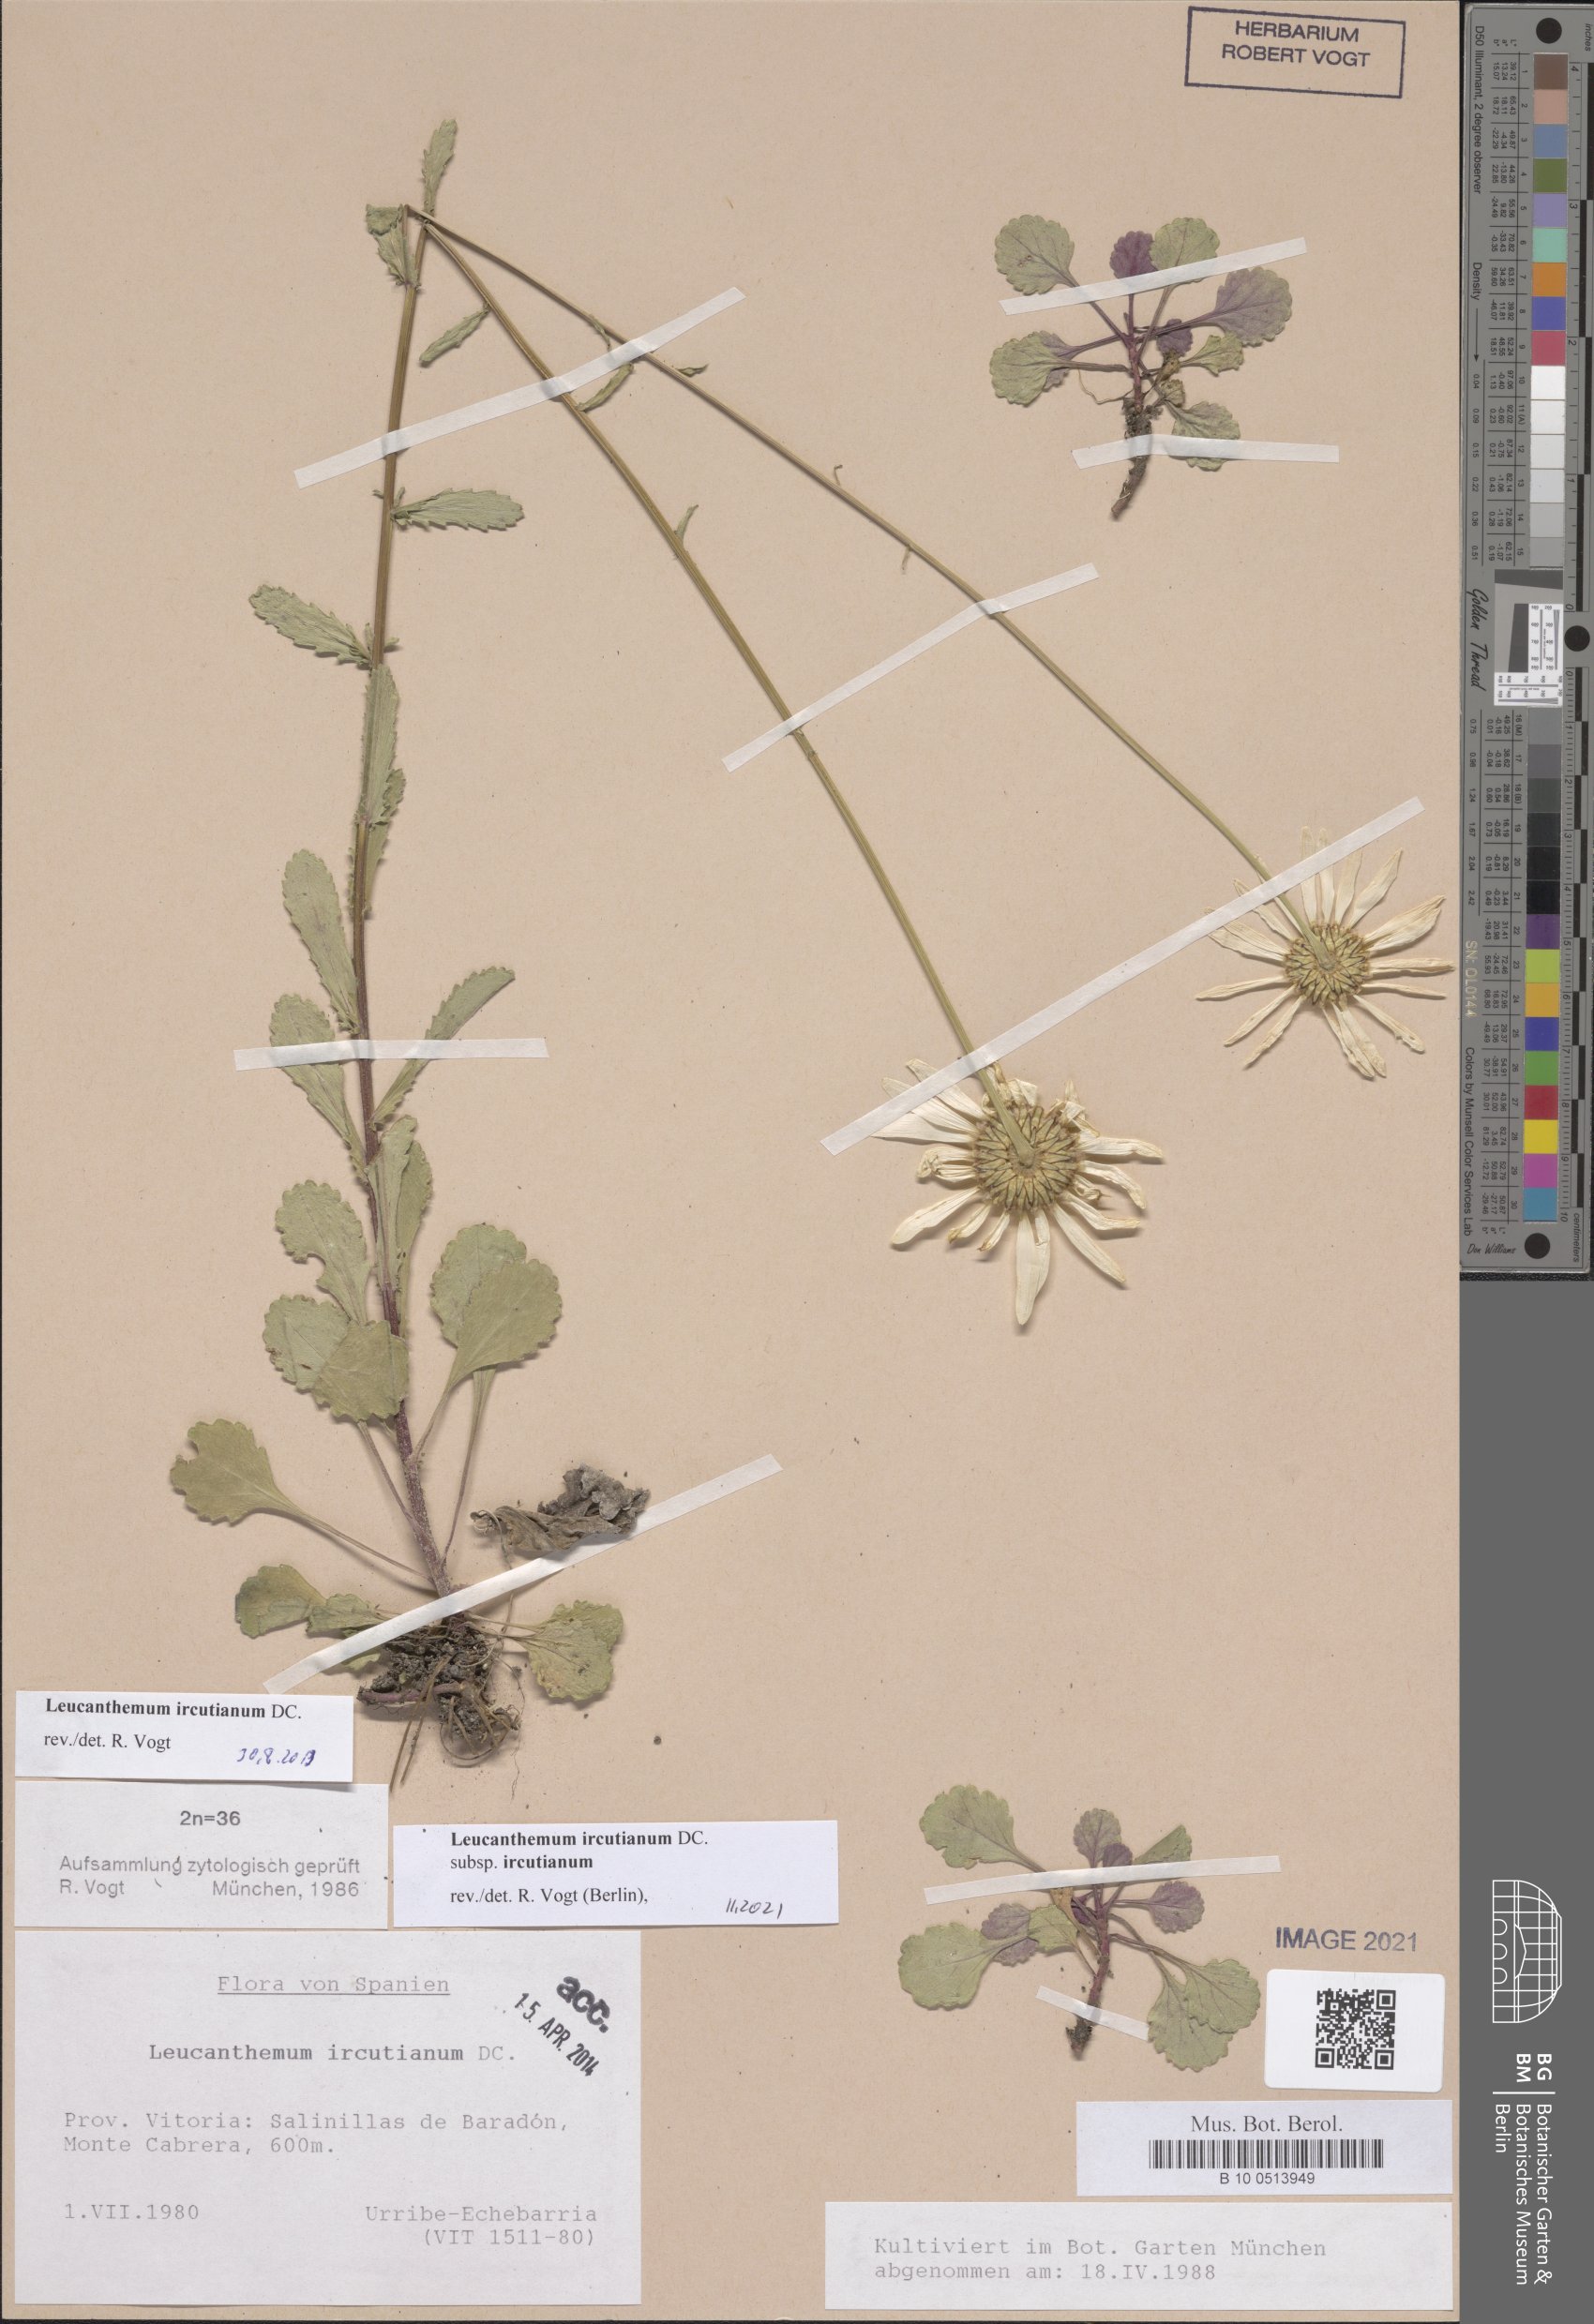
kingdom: Plantae
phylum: Tracheophyta
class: Magnoliopsida
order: Asterales
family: Asteraceae
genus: Leucanthemum
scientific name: Leucanthemum ircutianum
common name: Daisy
